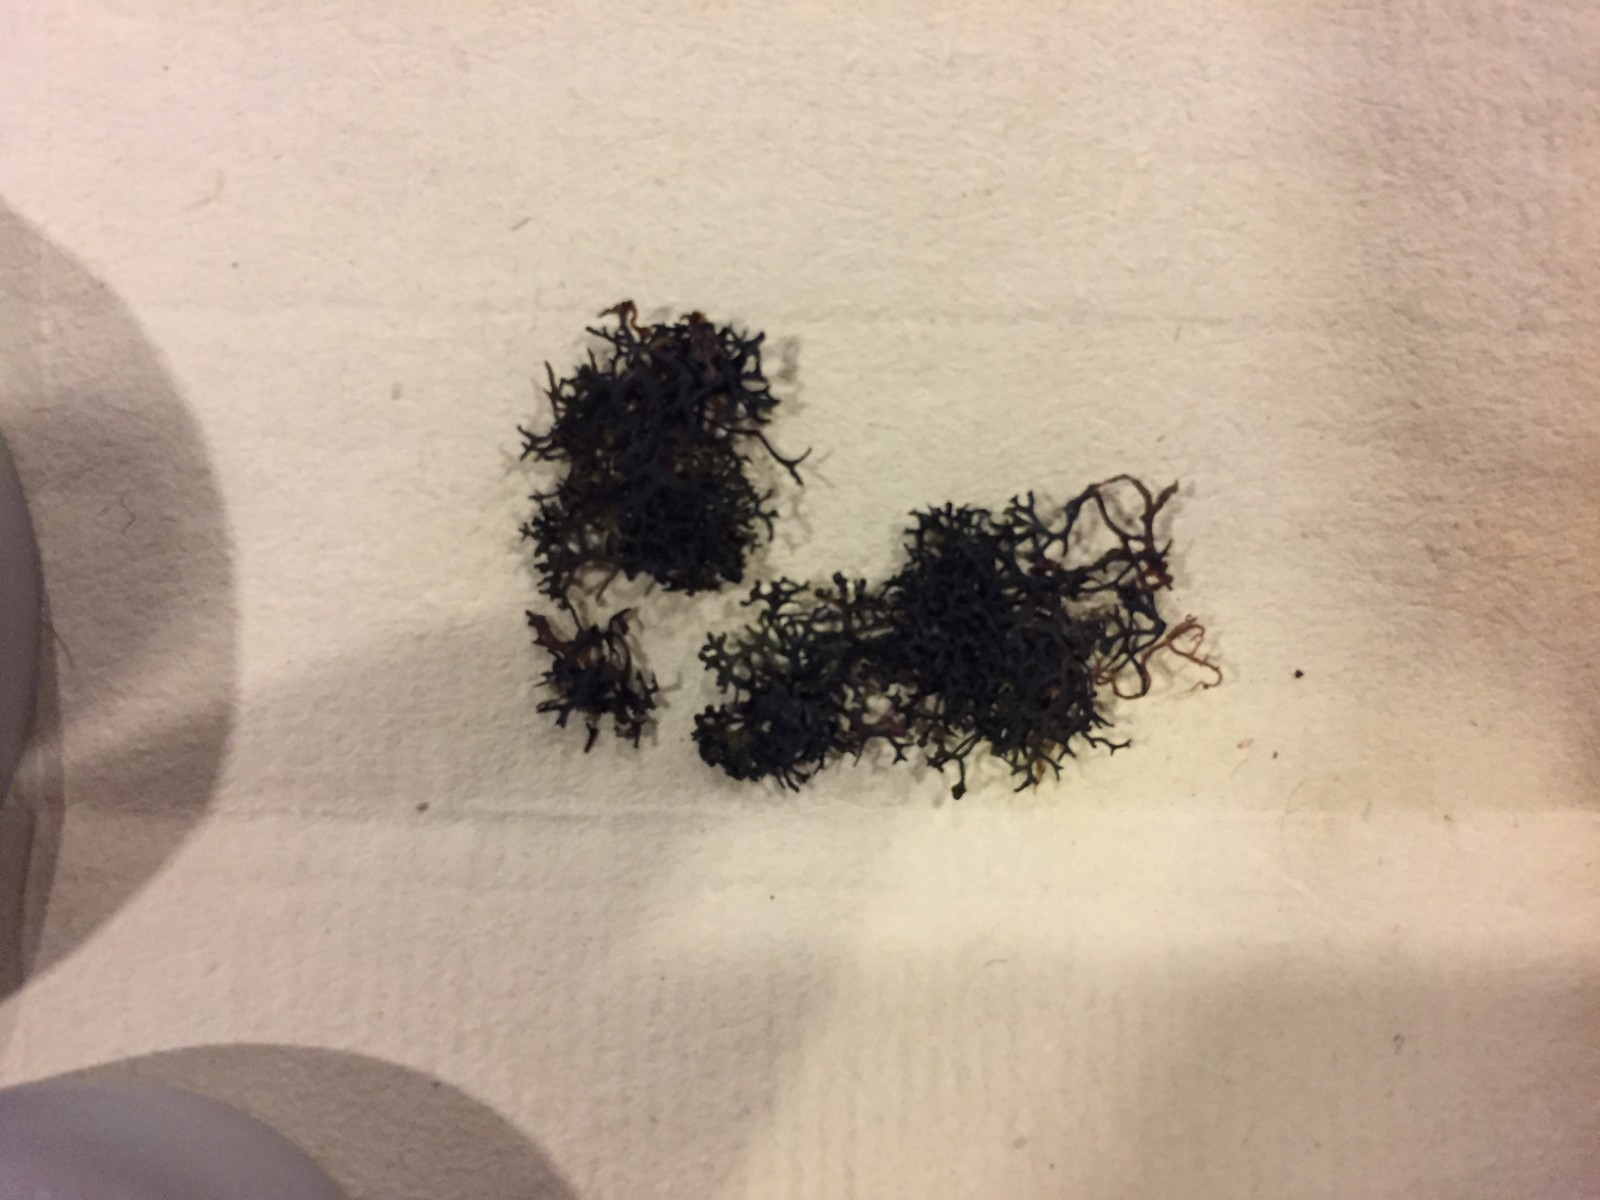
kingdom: Fungi
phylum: Ascomycota
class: Lichinomycetes
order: Lichinales
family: Lichinaceae
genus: Lichina
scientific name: Lichina pygmaea
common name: Black lichen
